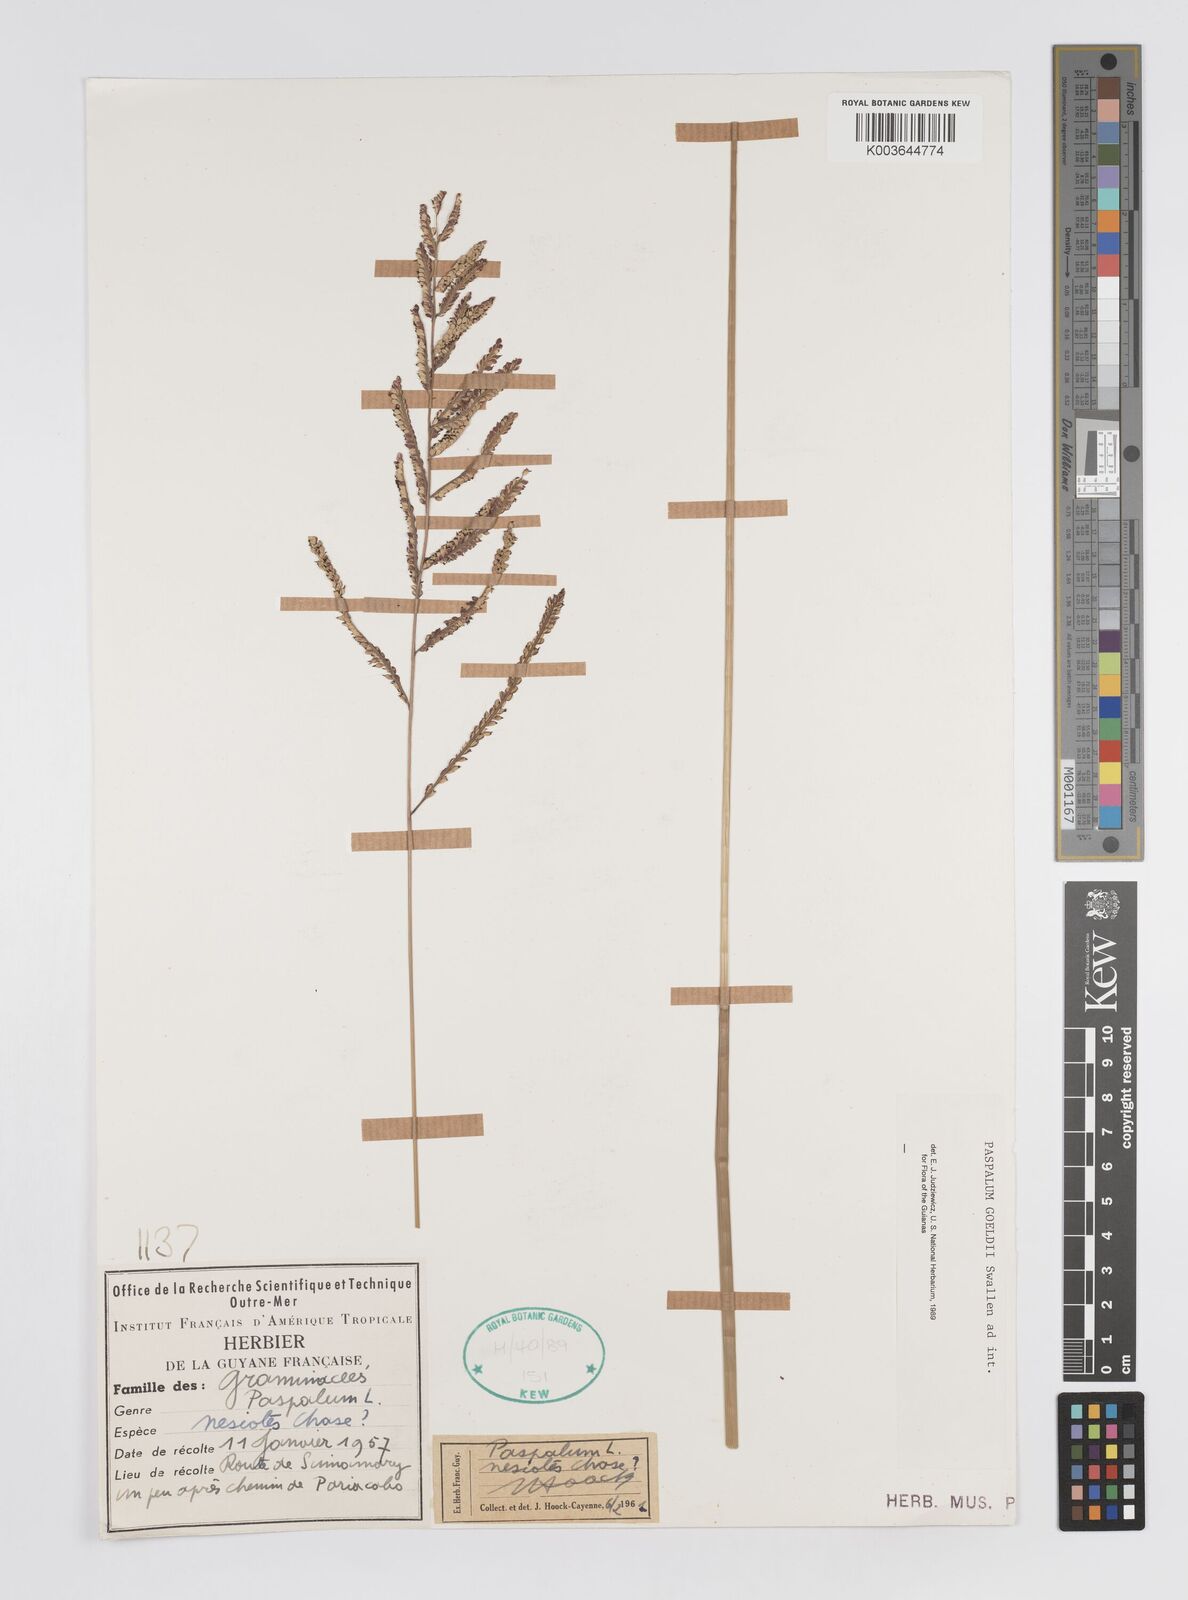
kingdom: Plantae
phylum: Tracheophyta
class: Liliopsida
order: Poales
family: Poaceae
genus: Paspalum
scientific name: Paspalum trichophyllum
